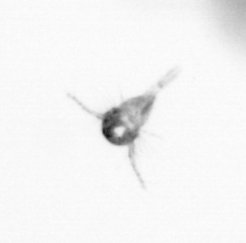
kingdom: Animalia
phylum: Arthropoda
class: Copepoda
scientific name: Copepoda
